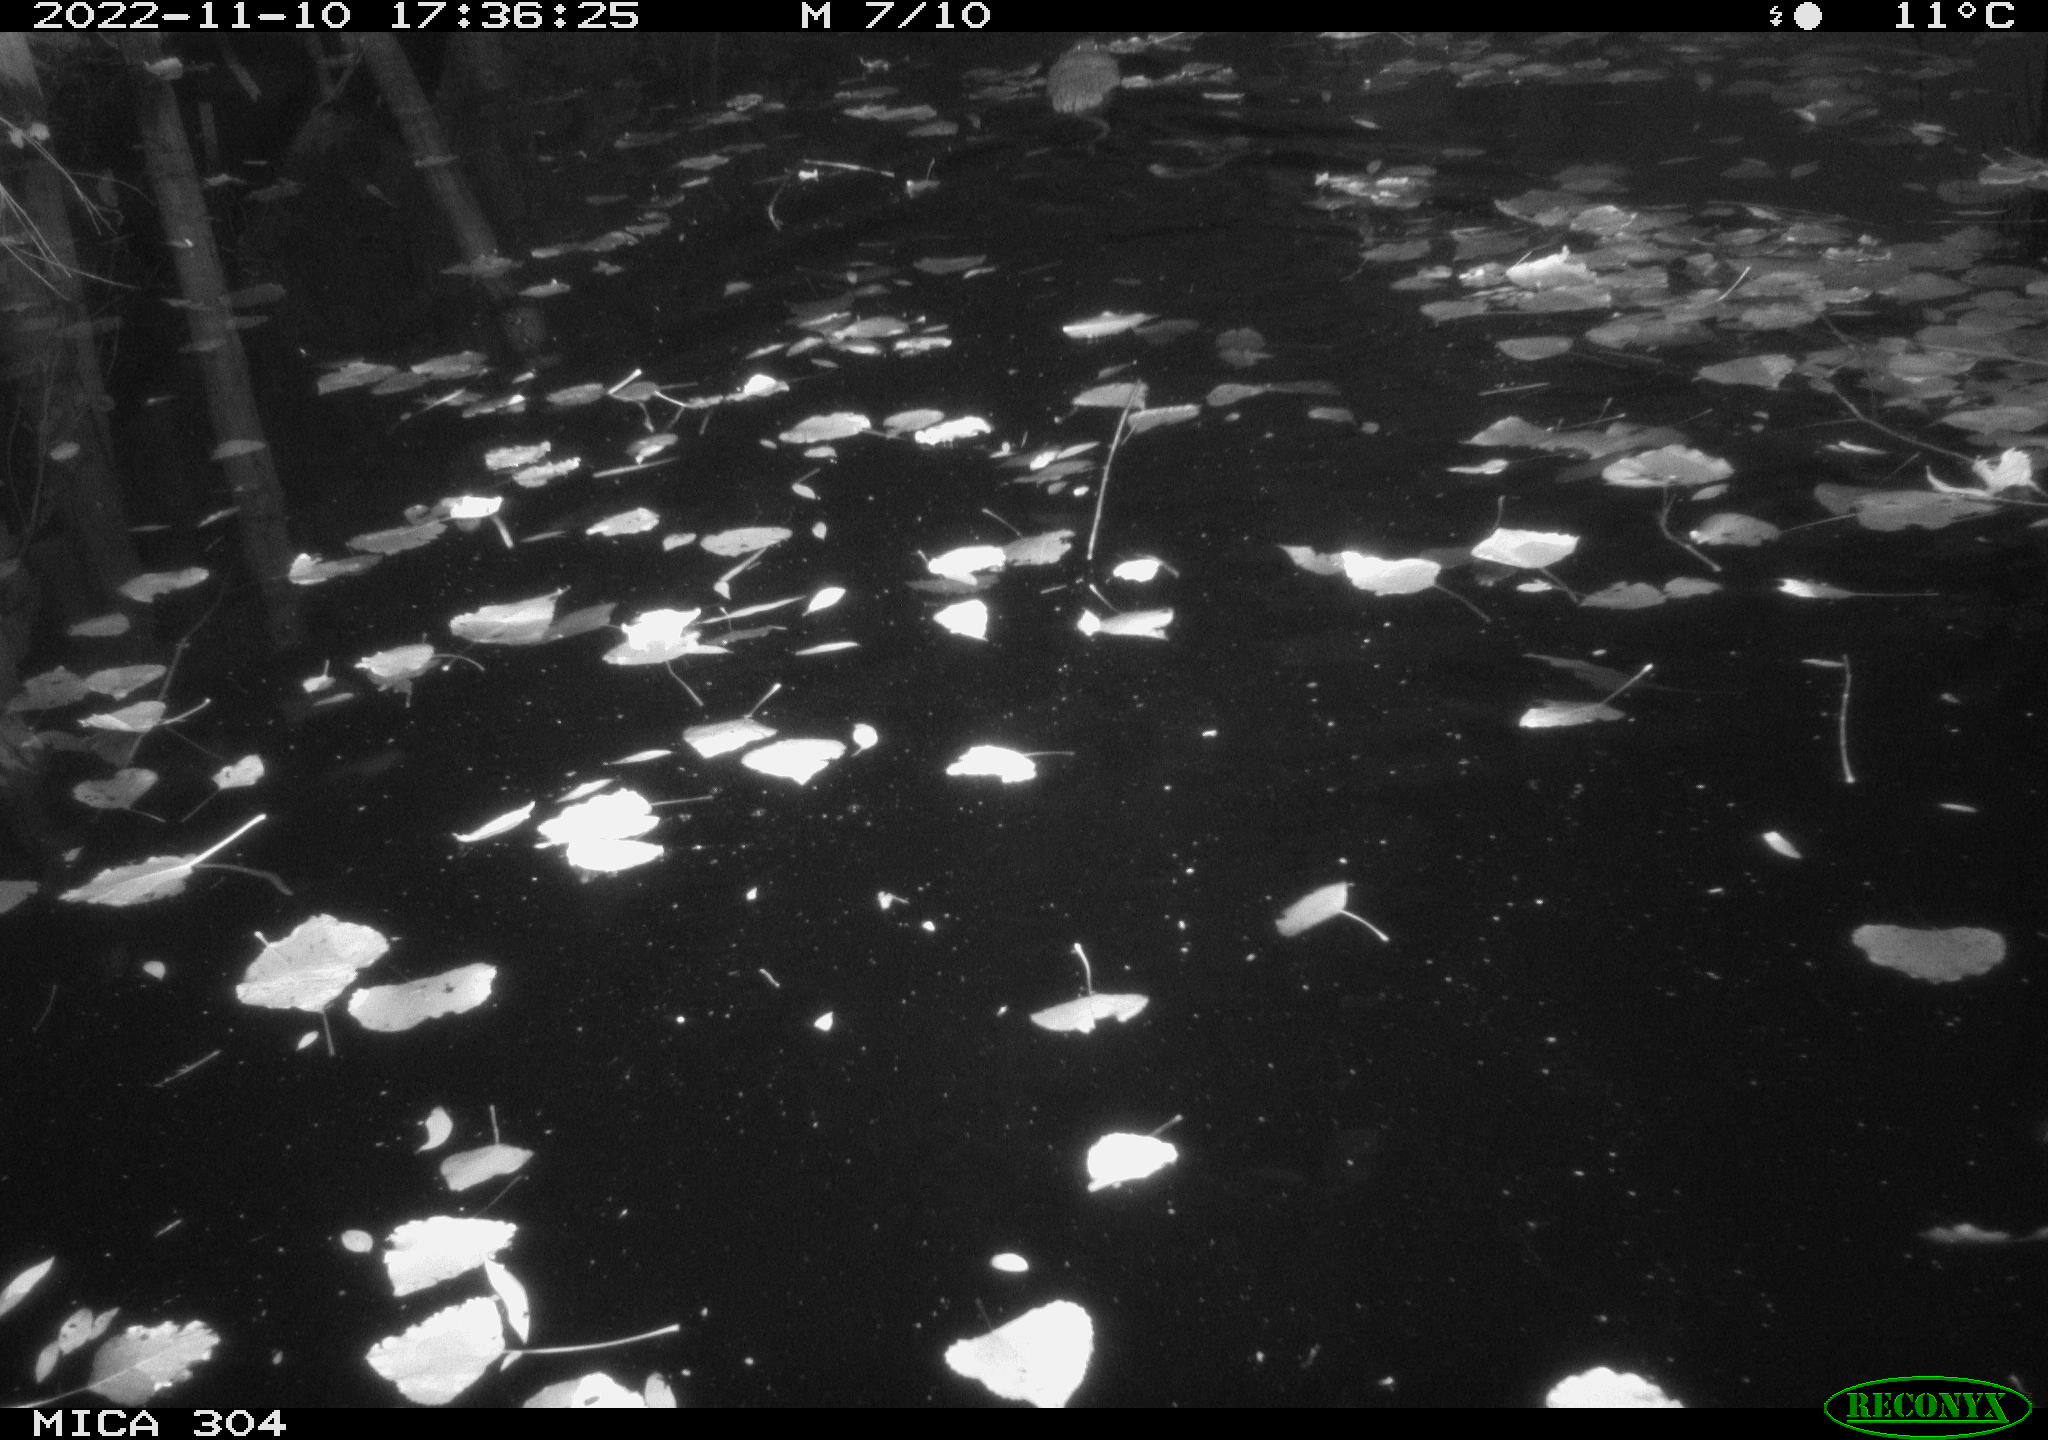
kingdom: Animalia
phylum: Chordata
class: Mammalia
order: Rodentia
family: Cricetidae
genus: Ondatra
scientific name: Ondatra zibethicus
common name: Muskrat
